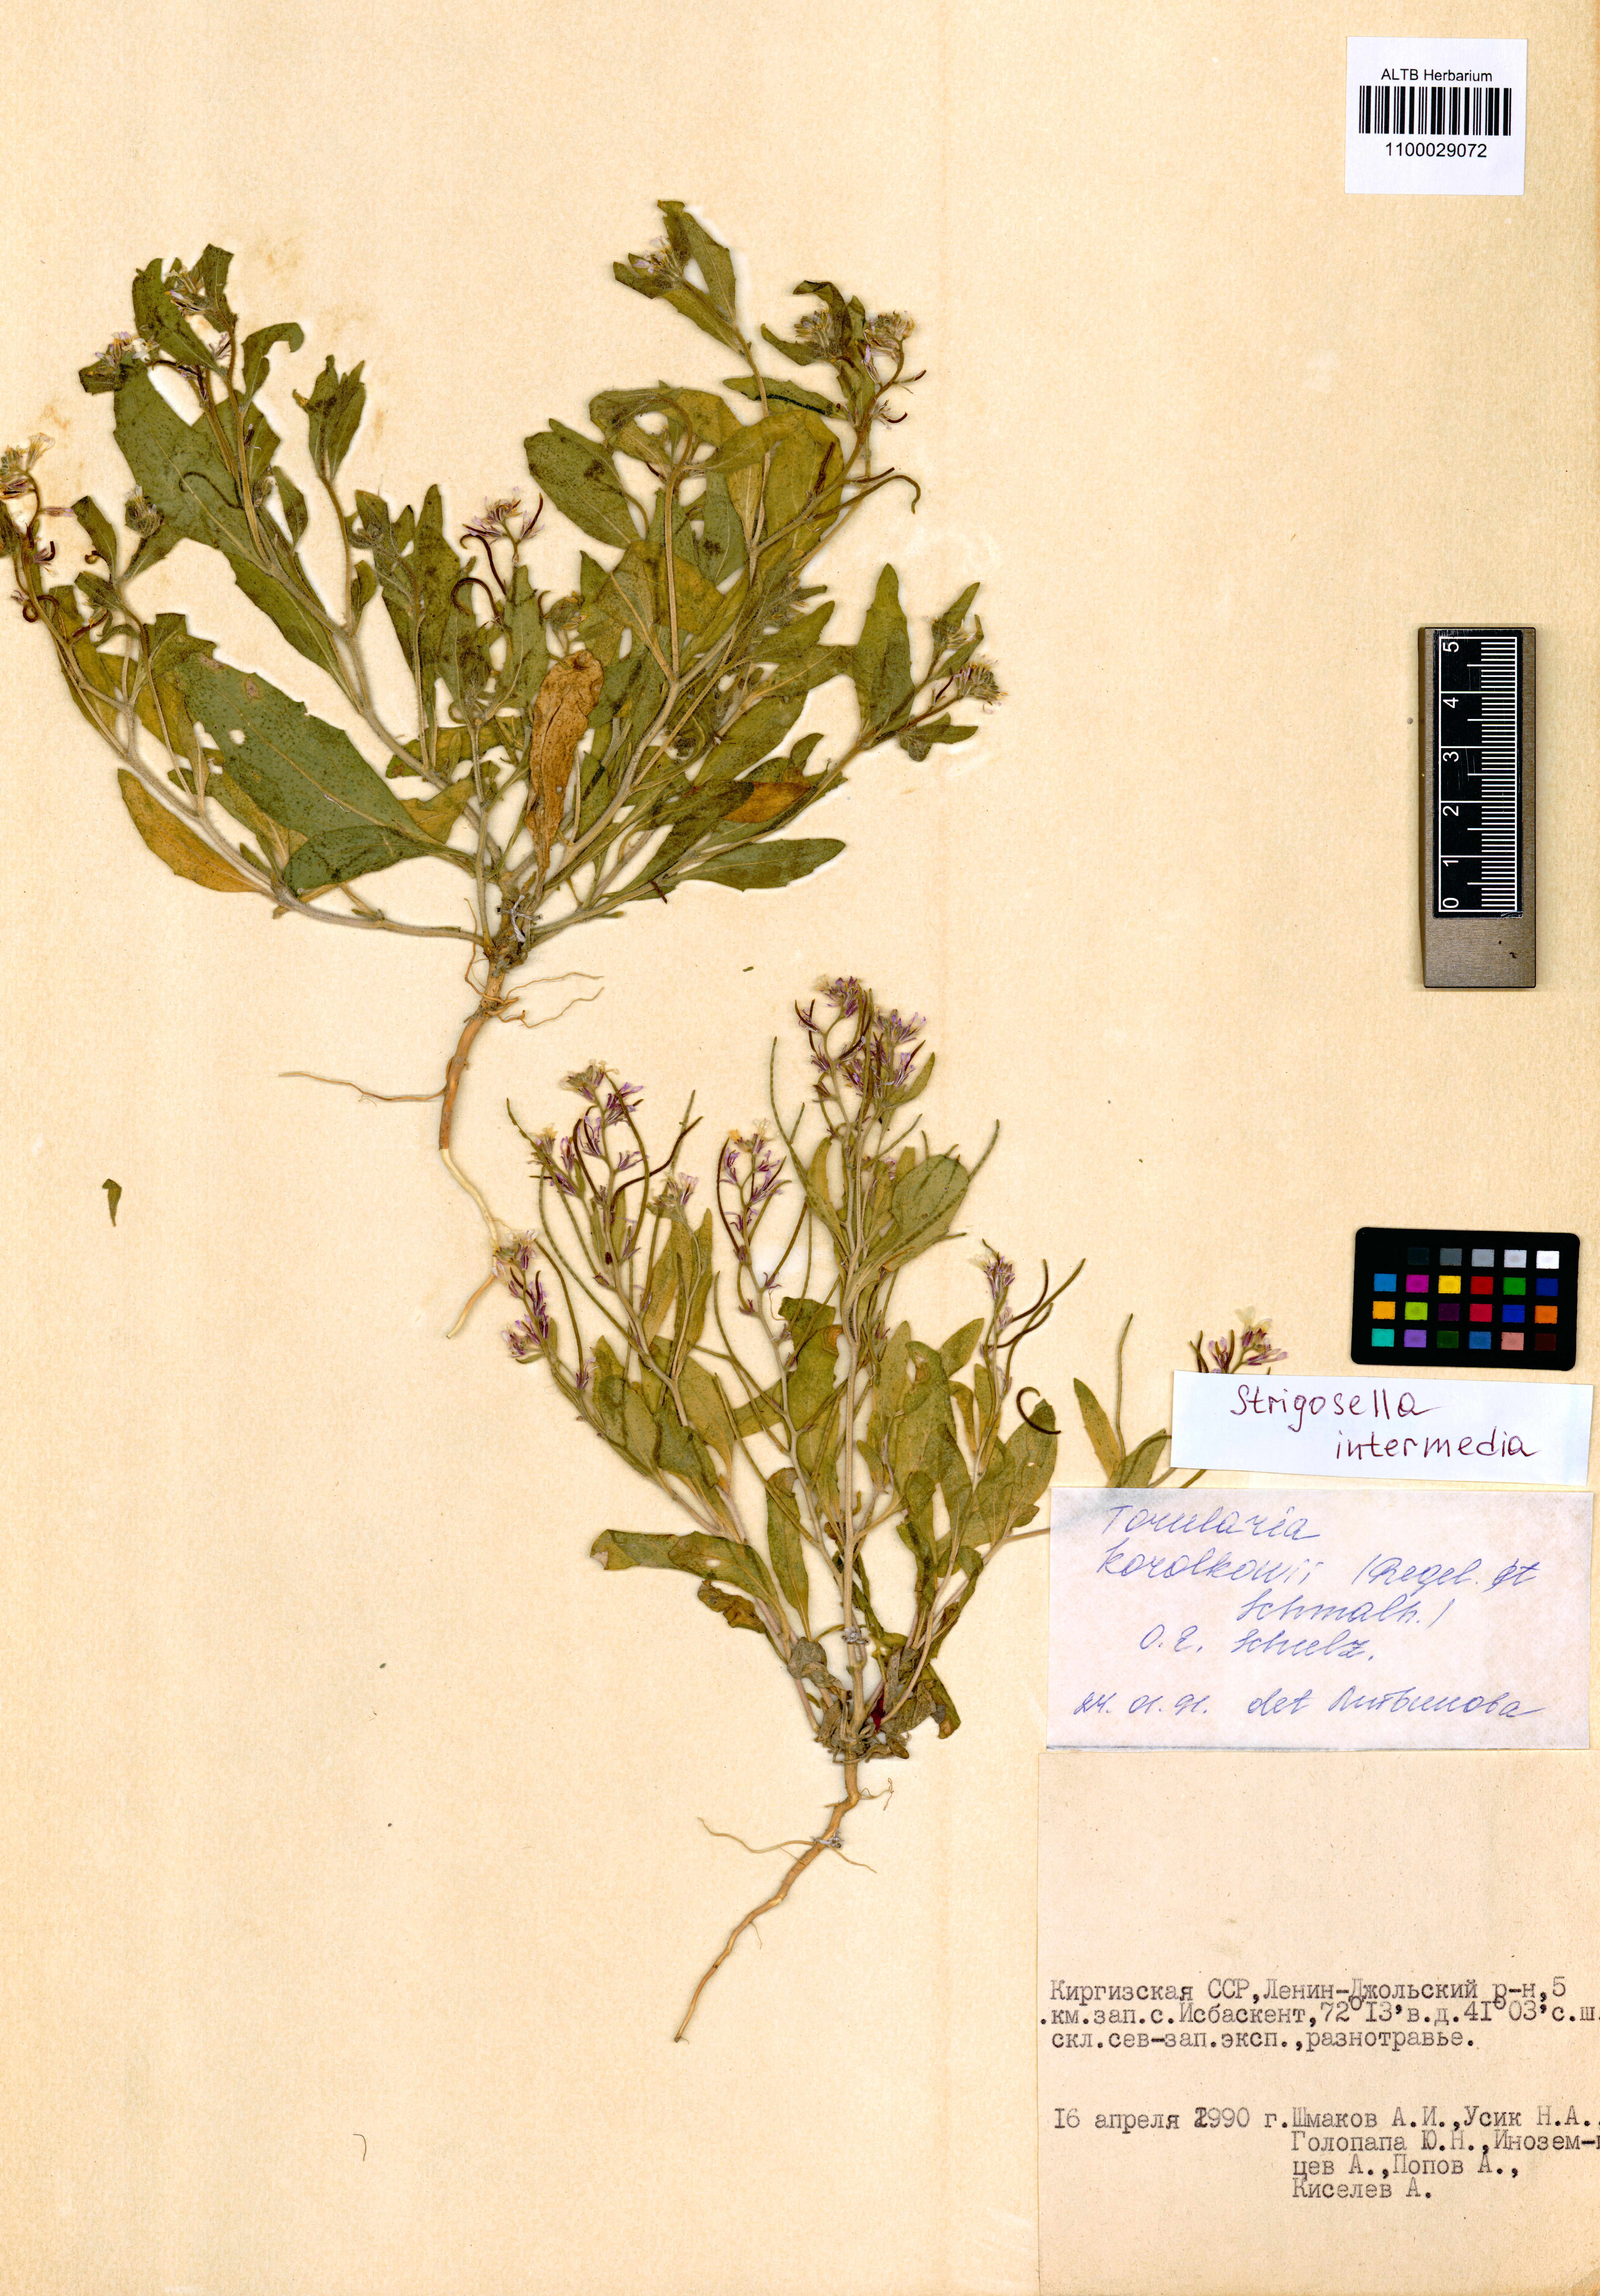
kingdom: Plantae
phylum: Tracheophyta
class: Magnoliopsida
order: Brassicales
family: Brassicaceae
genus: Strigosella
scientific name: Strigosella intermedia
